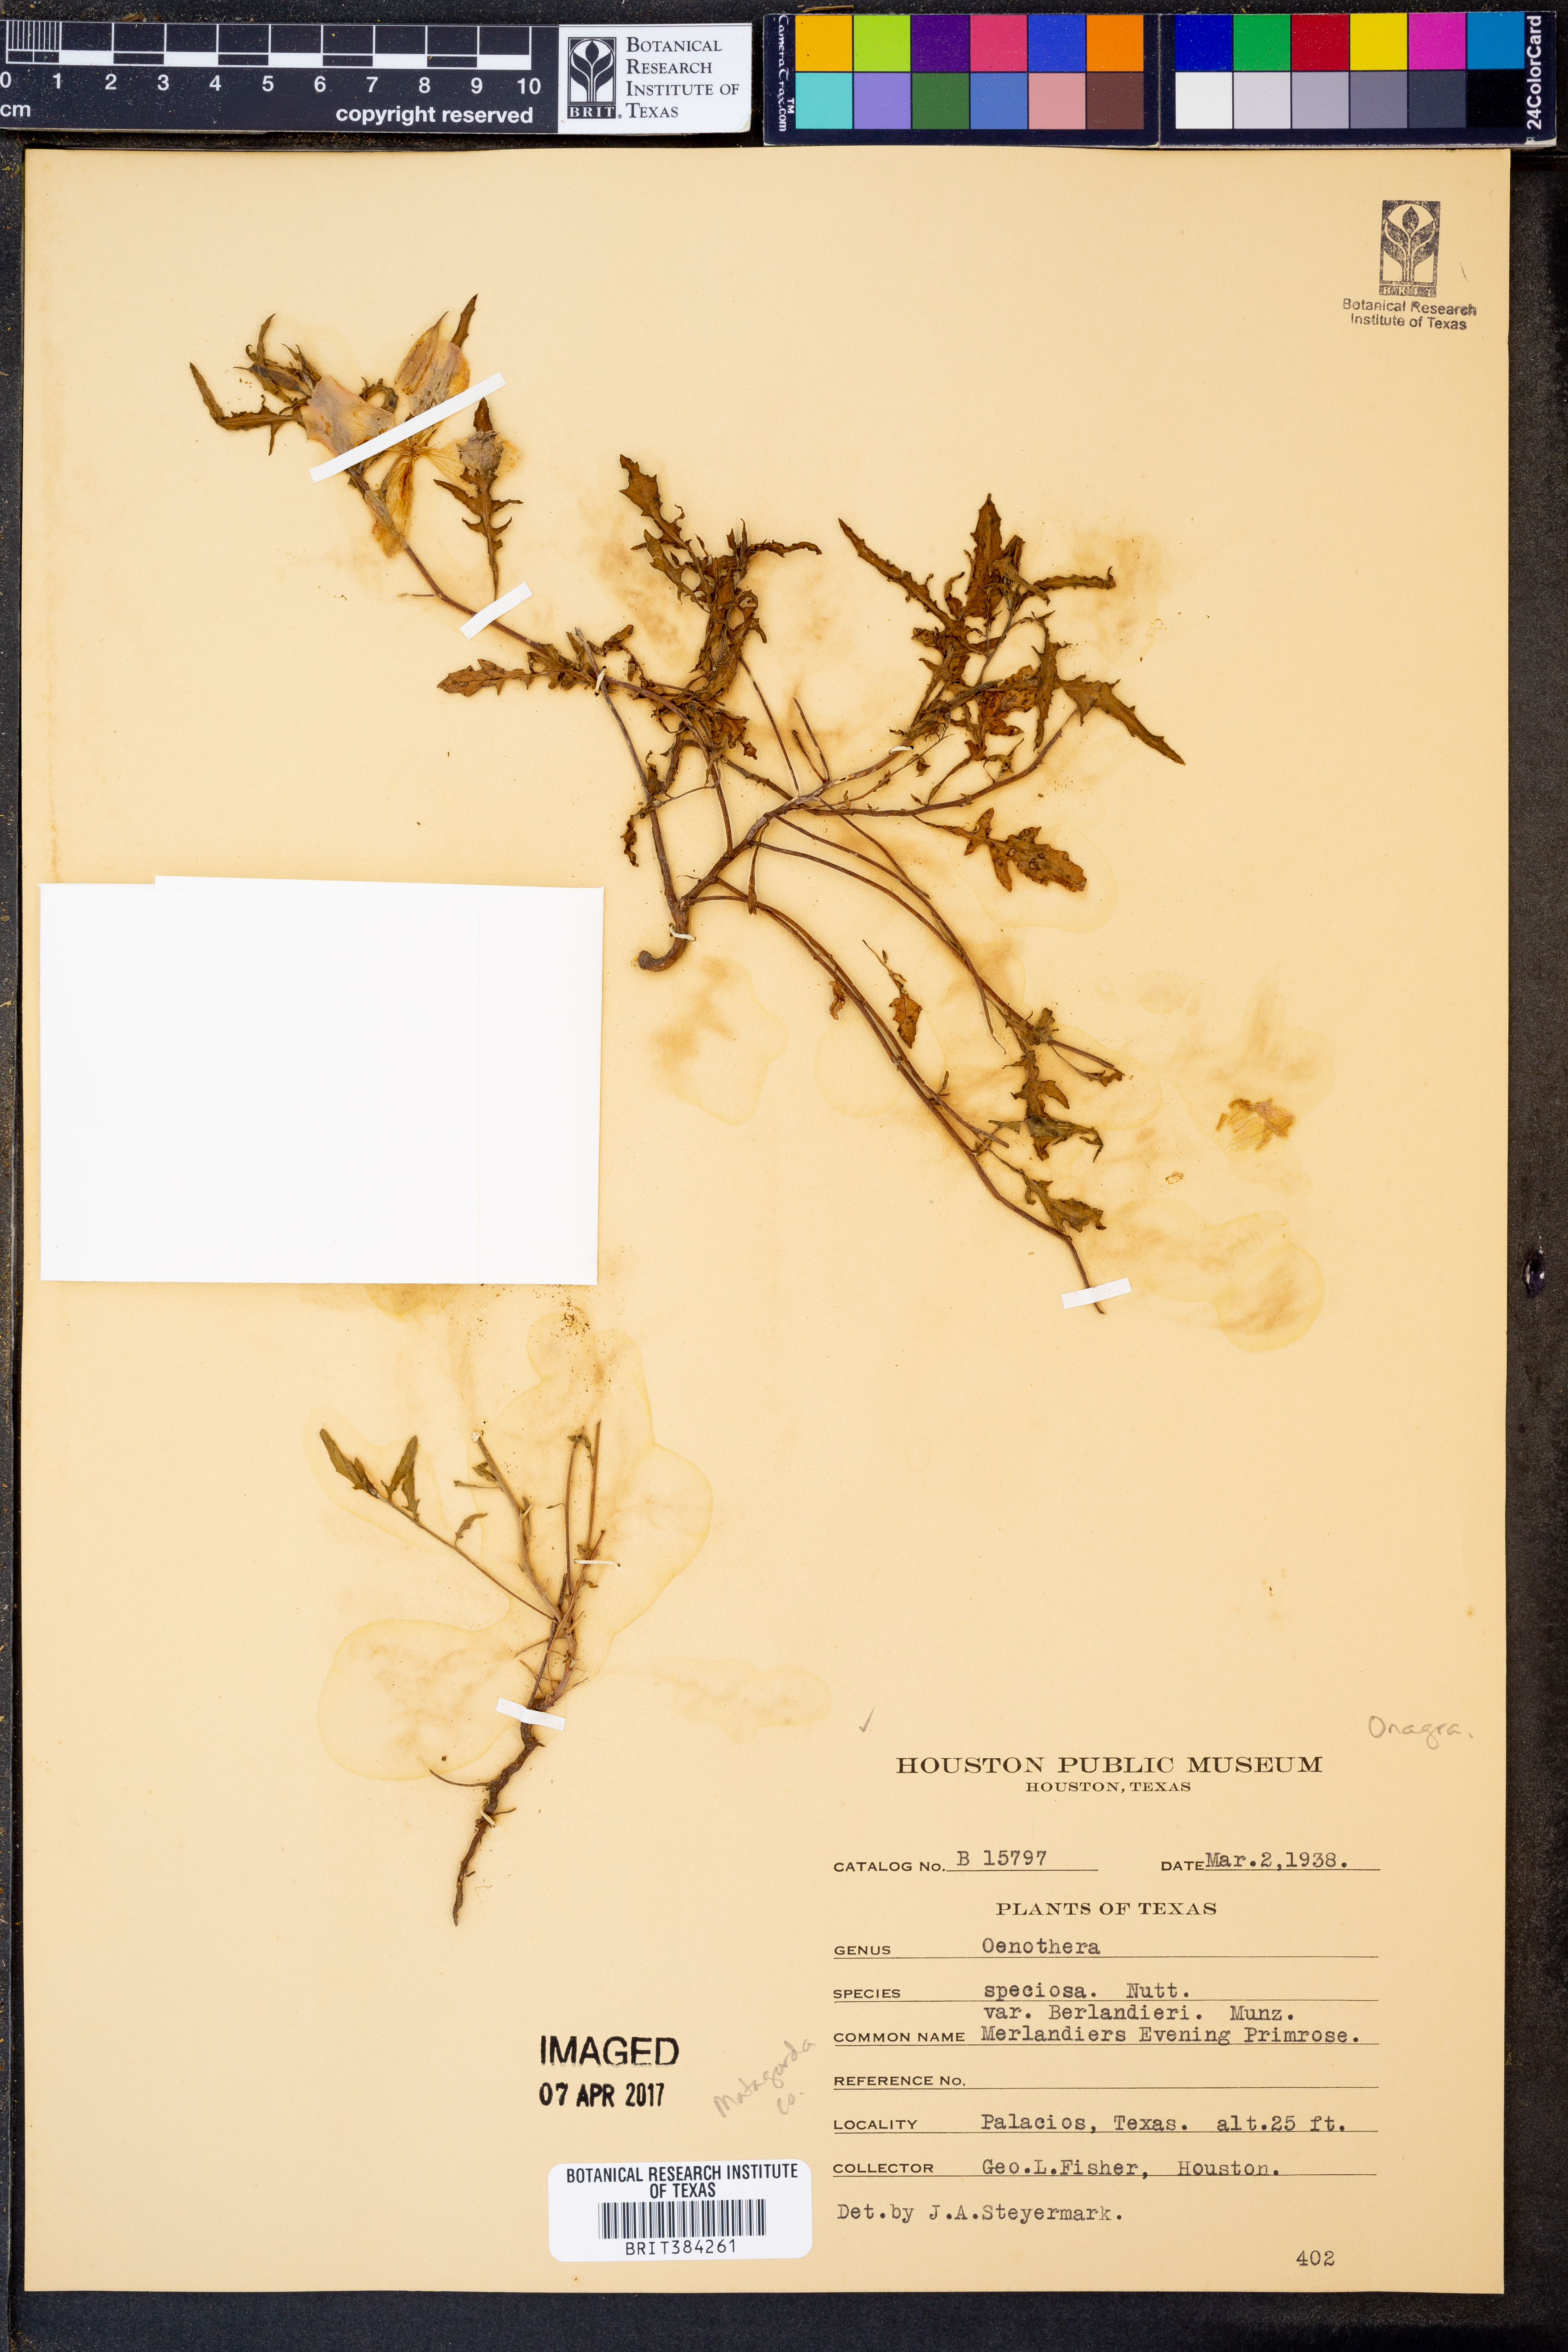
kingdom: Plantae
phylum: Tracheophyta
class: Magnoliopsida
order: Myrtales
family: Onagraceae
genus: Oenothera
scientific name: Oenothera
